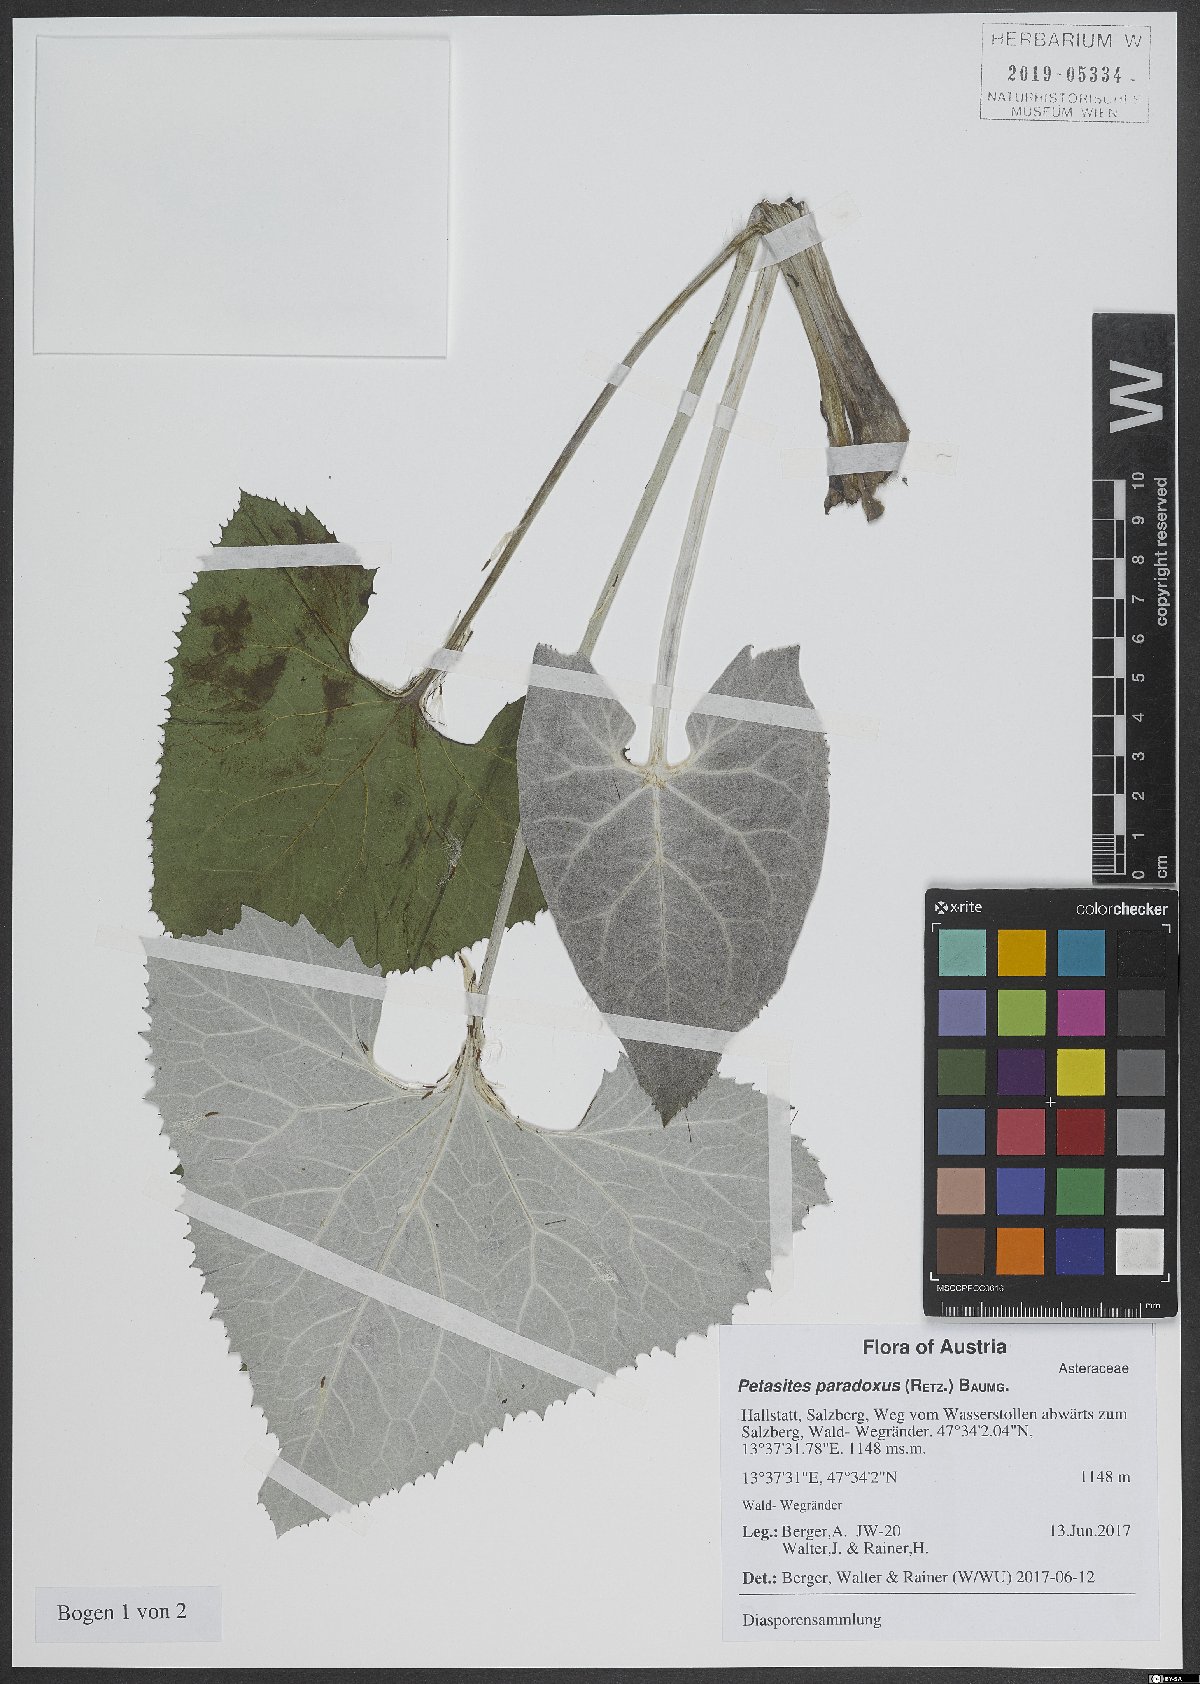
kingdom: Plantae
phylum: Tracheophyta
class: Magnoliopsida
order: Asterales
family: Asteraceae
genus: Petasites
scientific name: Petasites paradoxus
